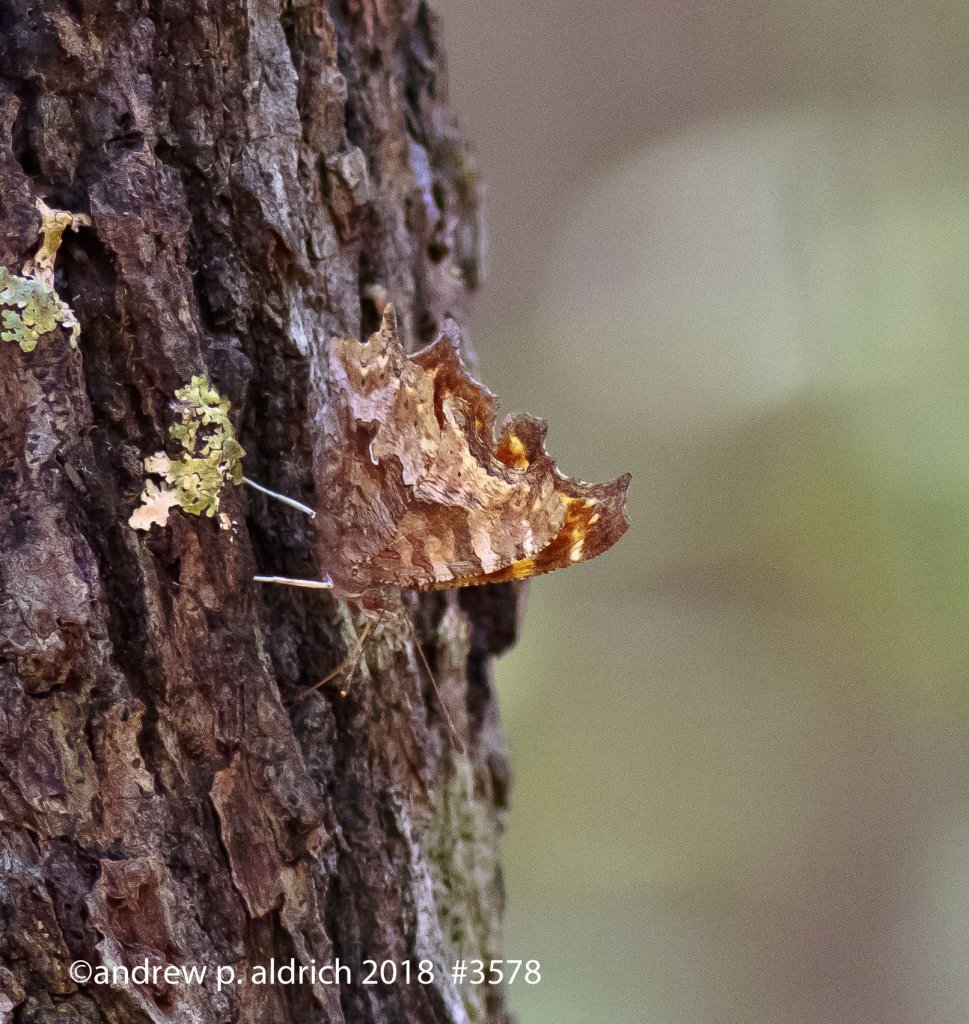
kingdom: Animalia
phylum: Arthropoda
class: Insecta
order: Lepidoptera
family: Nymphalidae
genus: Polygonia
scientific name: Polygonia comma
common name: Eastern Comma
